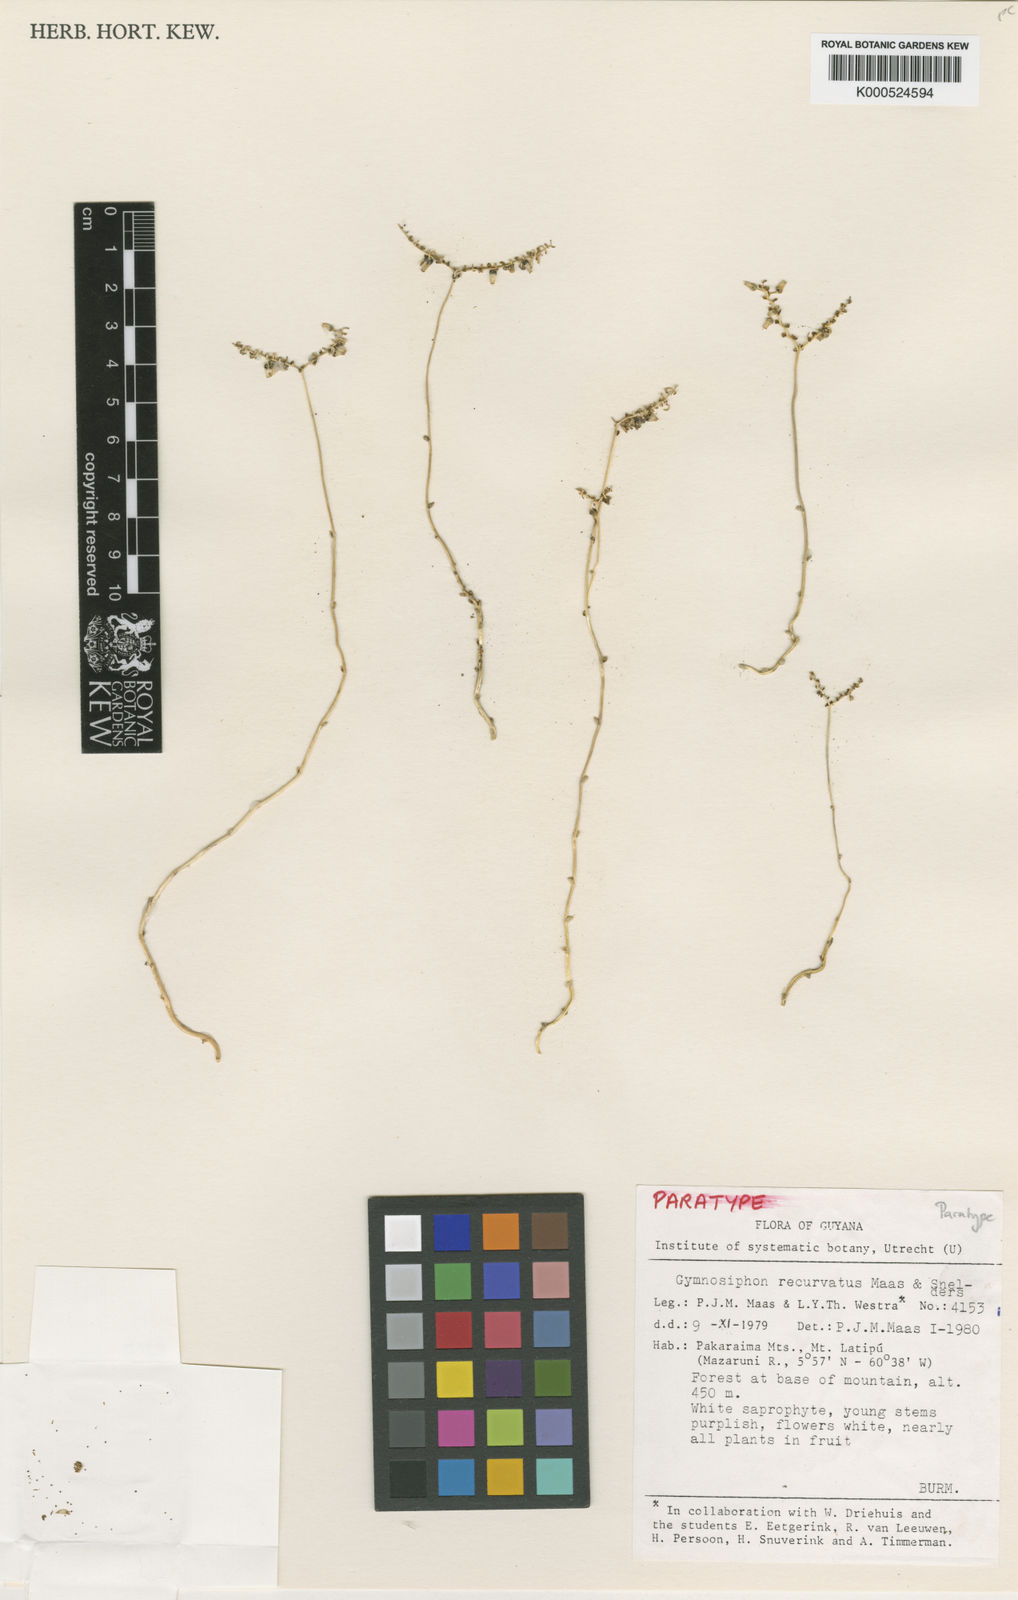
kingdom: Plantae
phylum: Tracheophyta
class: Liliopsida
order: Dioscoreales
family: Burmanniaceae
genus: Gymnosiphon
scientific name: Gymnosiphon recurvatus
